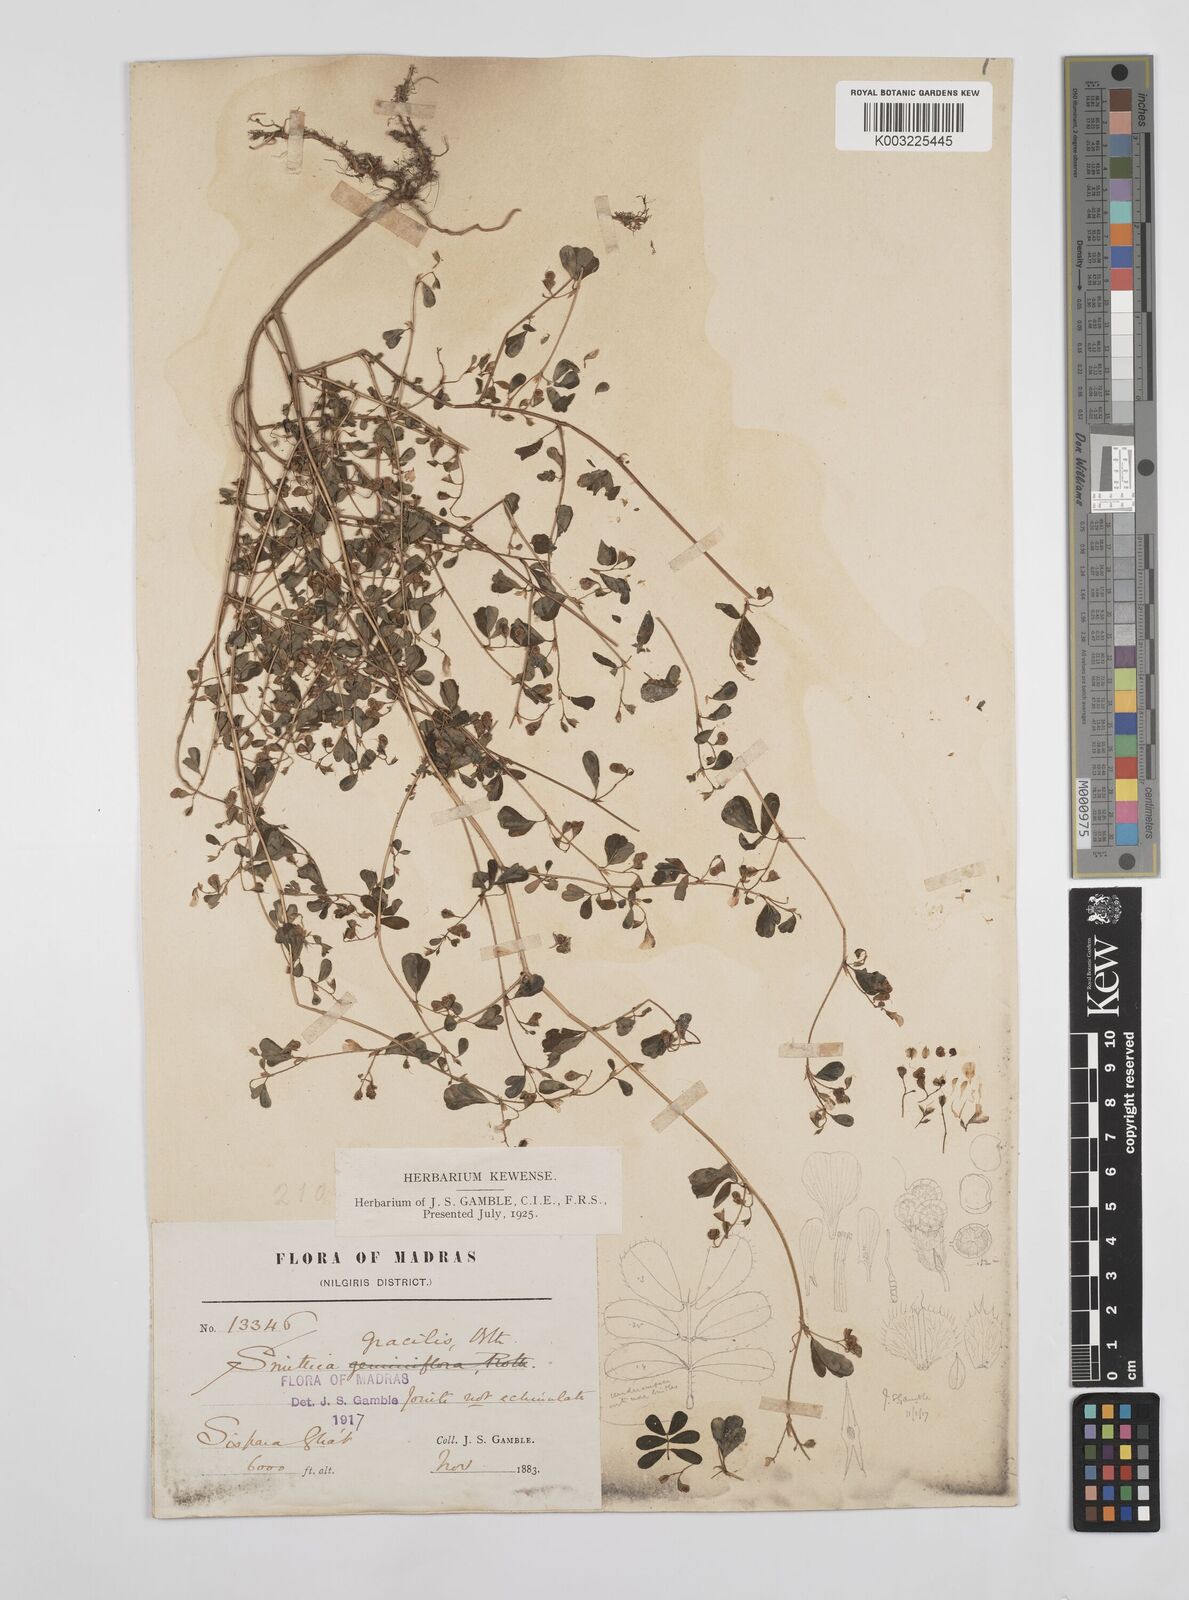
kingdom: Plantae
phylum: Tracheophyta
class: Magnoliopsida
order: Fabales
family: Fabaceae
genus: Smithia
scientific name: Smithia gracilis
